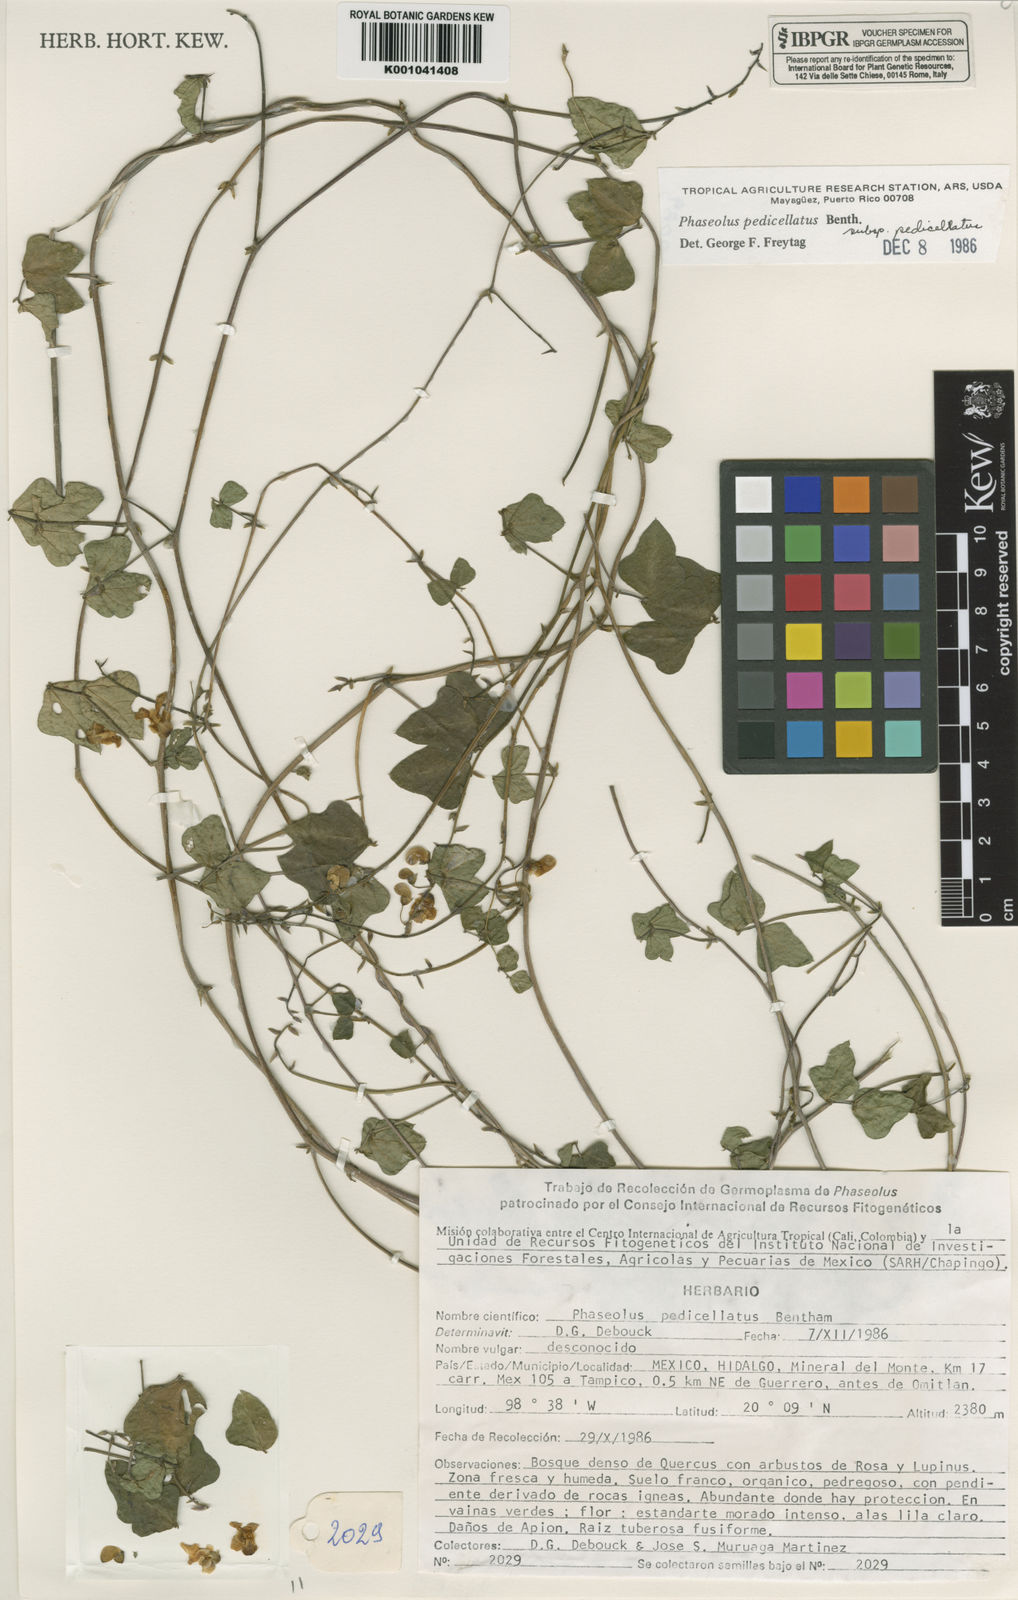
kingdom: Plantae
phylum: Tracheophyta
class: Magnoliopsida
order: Fabales
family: Fabaceae
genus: Phaseolus
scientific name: Phaseolus pedicellatus
